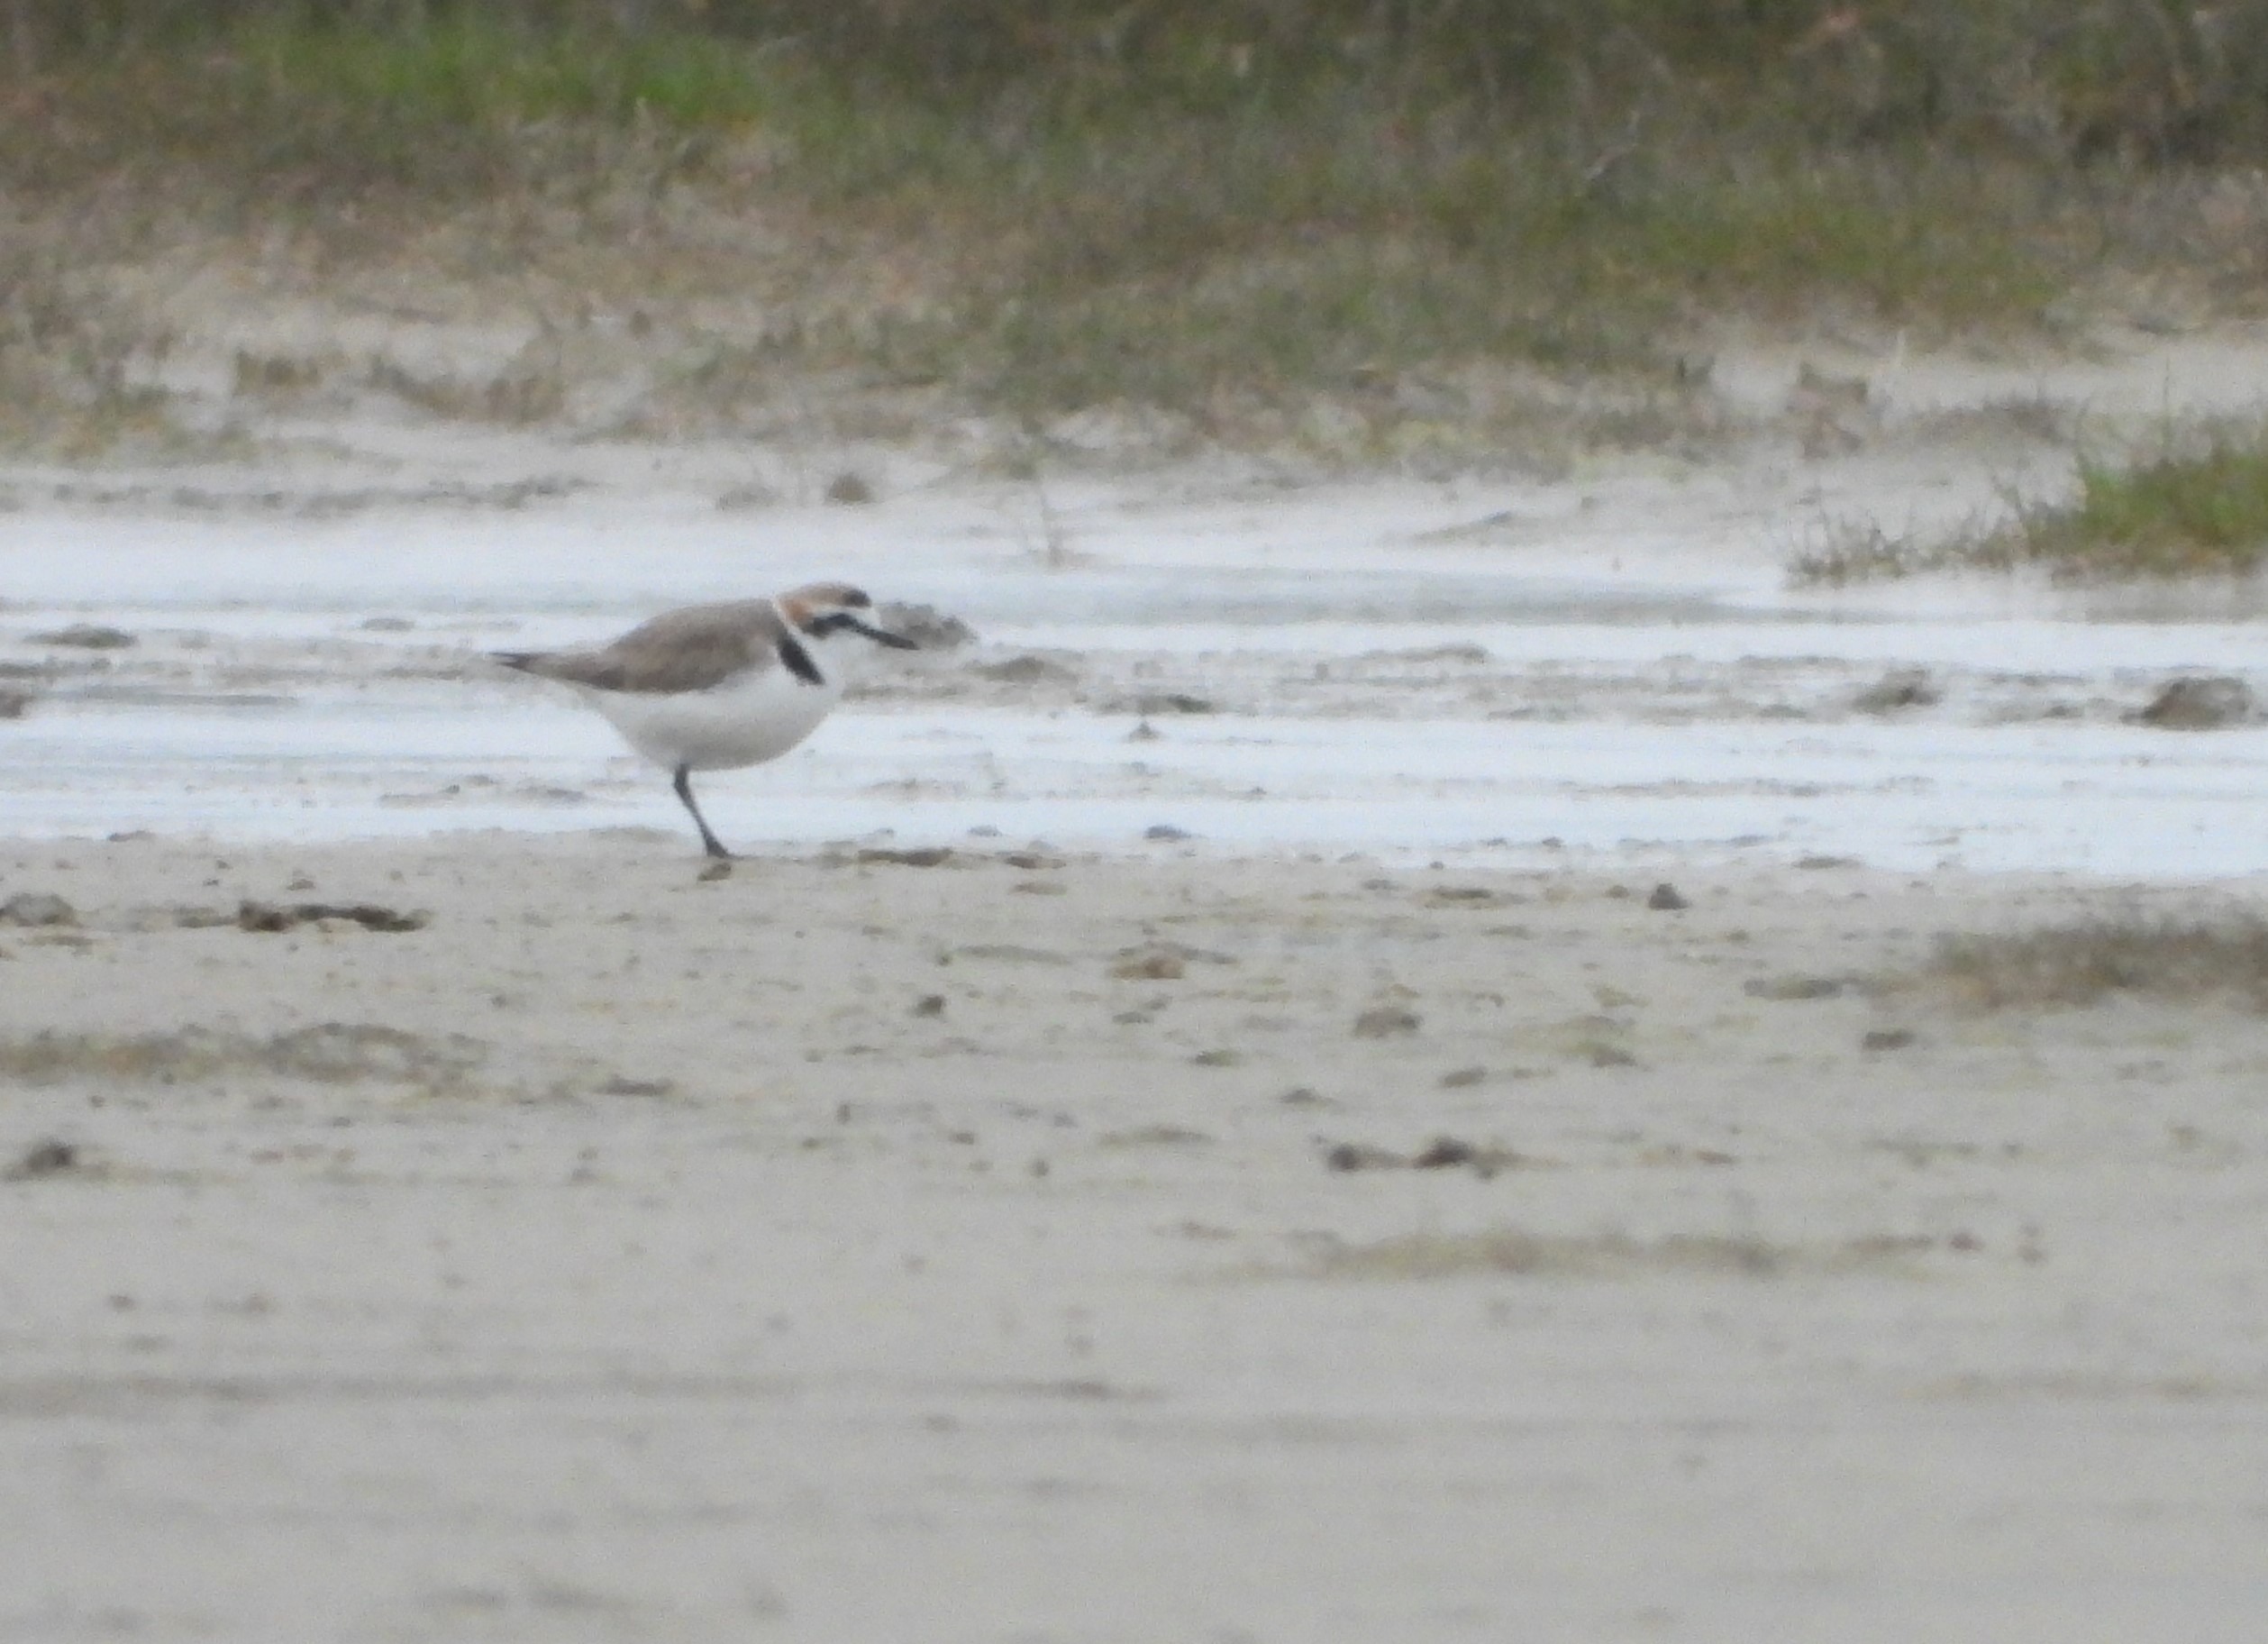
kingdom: Animalia
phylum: Chordata
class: Aves
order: Charadriiformes
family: Charadriidae
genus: Charadrius
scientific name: Charadrius alexandrinus
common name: Hvidbrystet præstekrave
